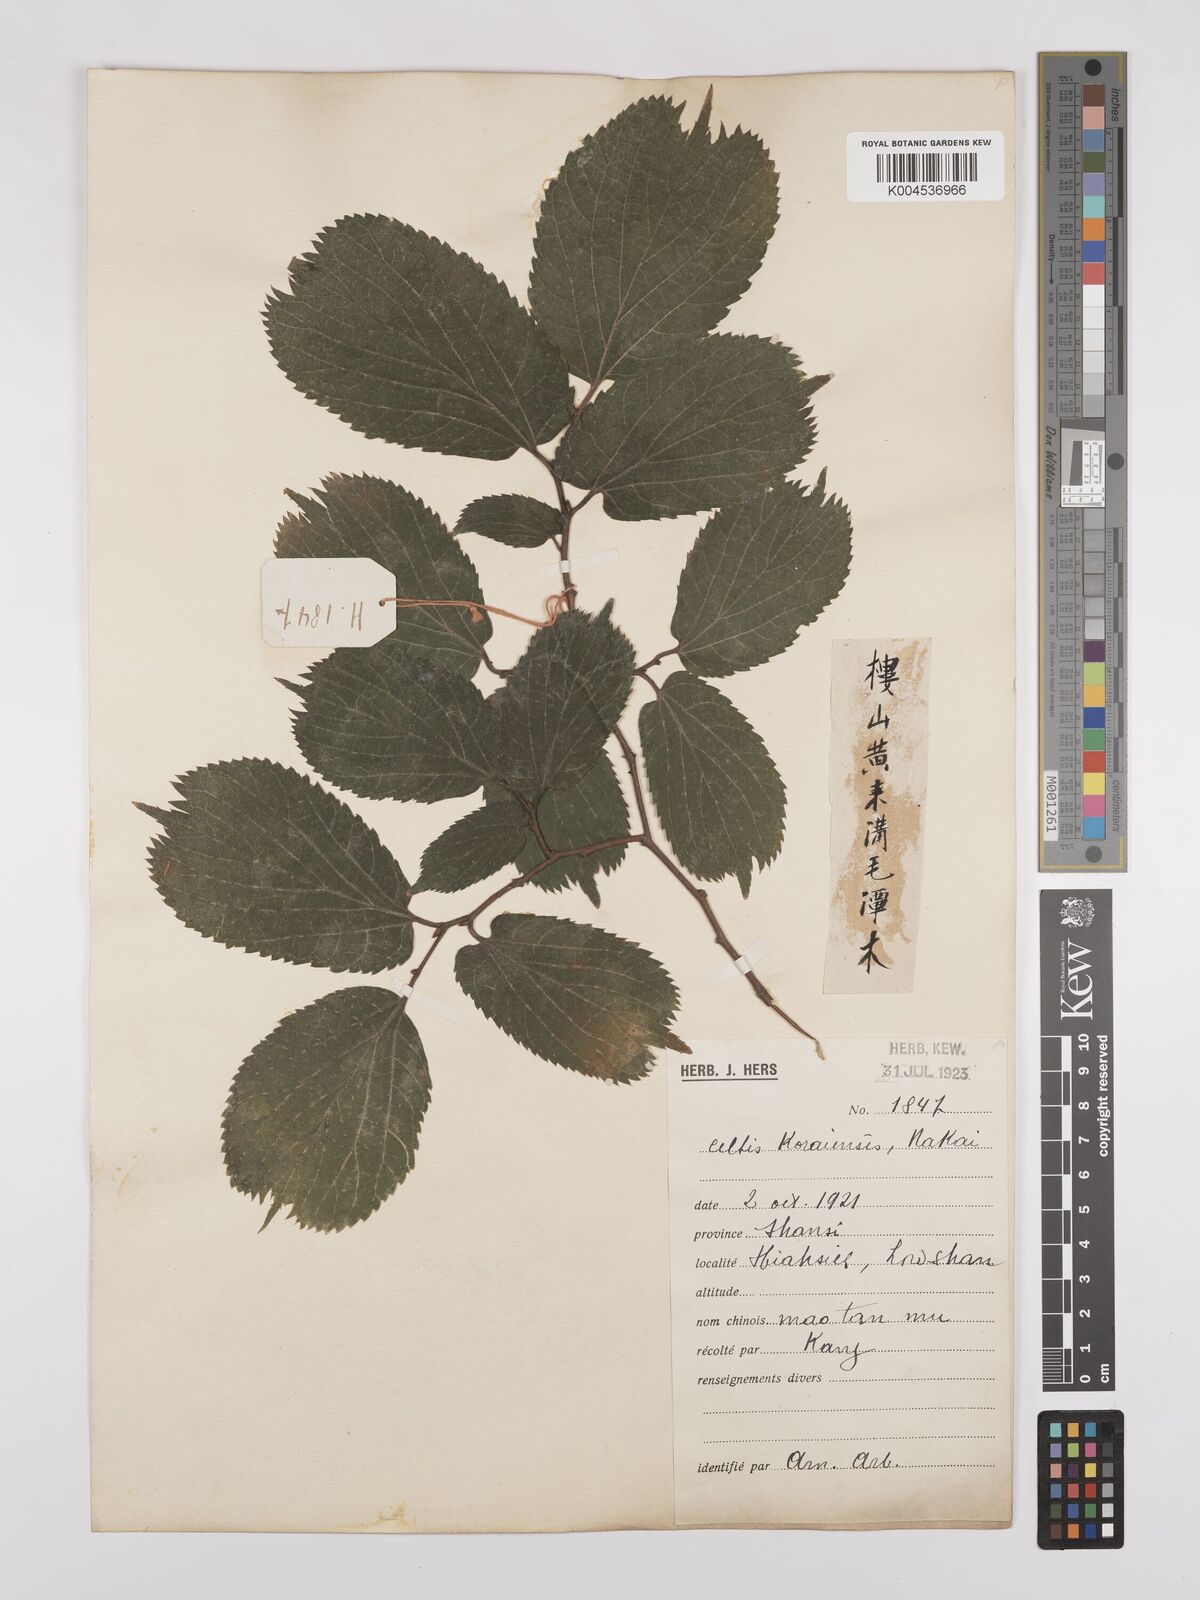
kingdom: Plantae
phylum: Tracheophyta
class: Magnoliopsida
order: Rosales
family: Cannabaceae
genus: Celtis
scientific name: Celtis koraiensis
